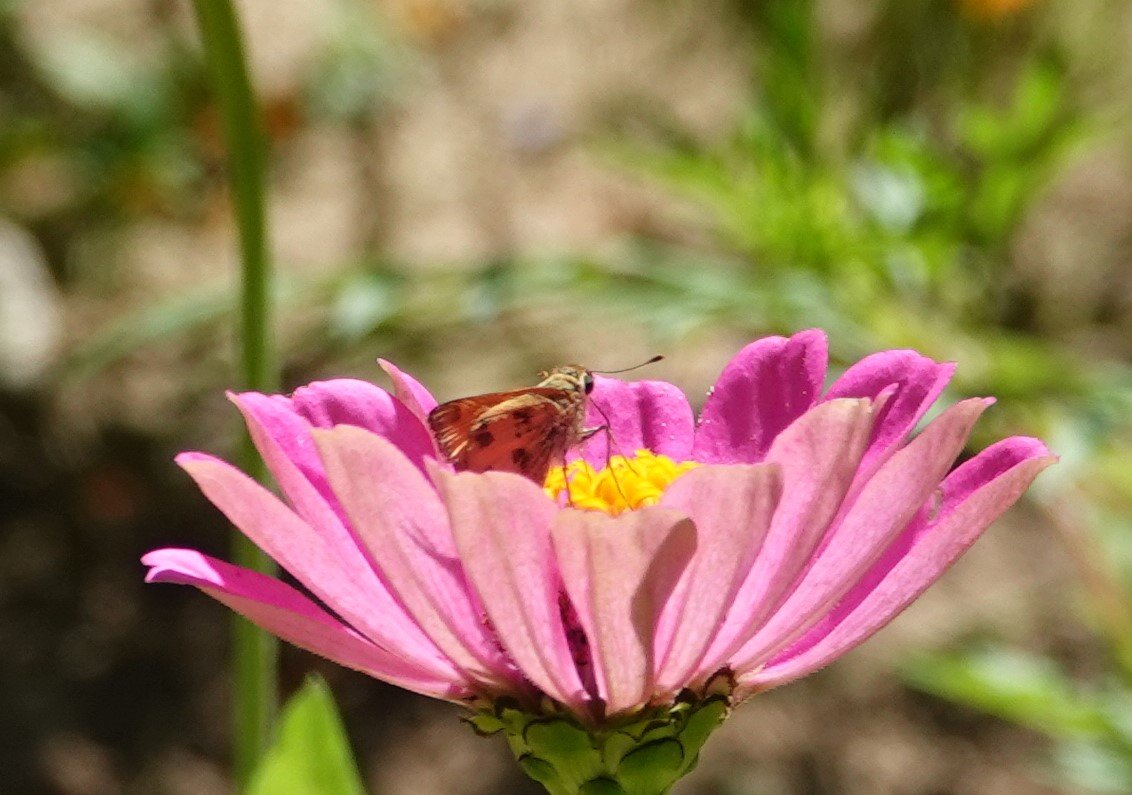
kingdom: Animalia
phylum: Arthropoda
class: Insecta
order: Lepidoptera
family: Hesperiidae
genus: Polites
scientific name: Polites vibex
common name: Whirlabout
